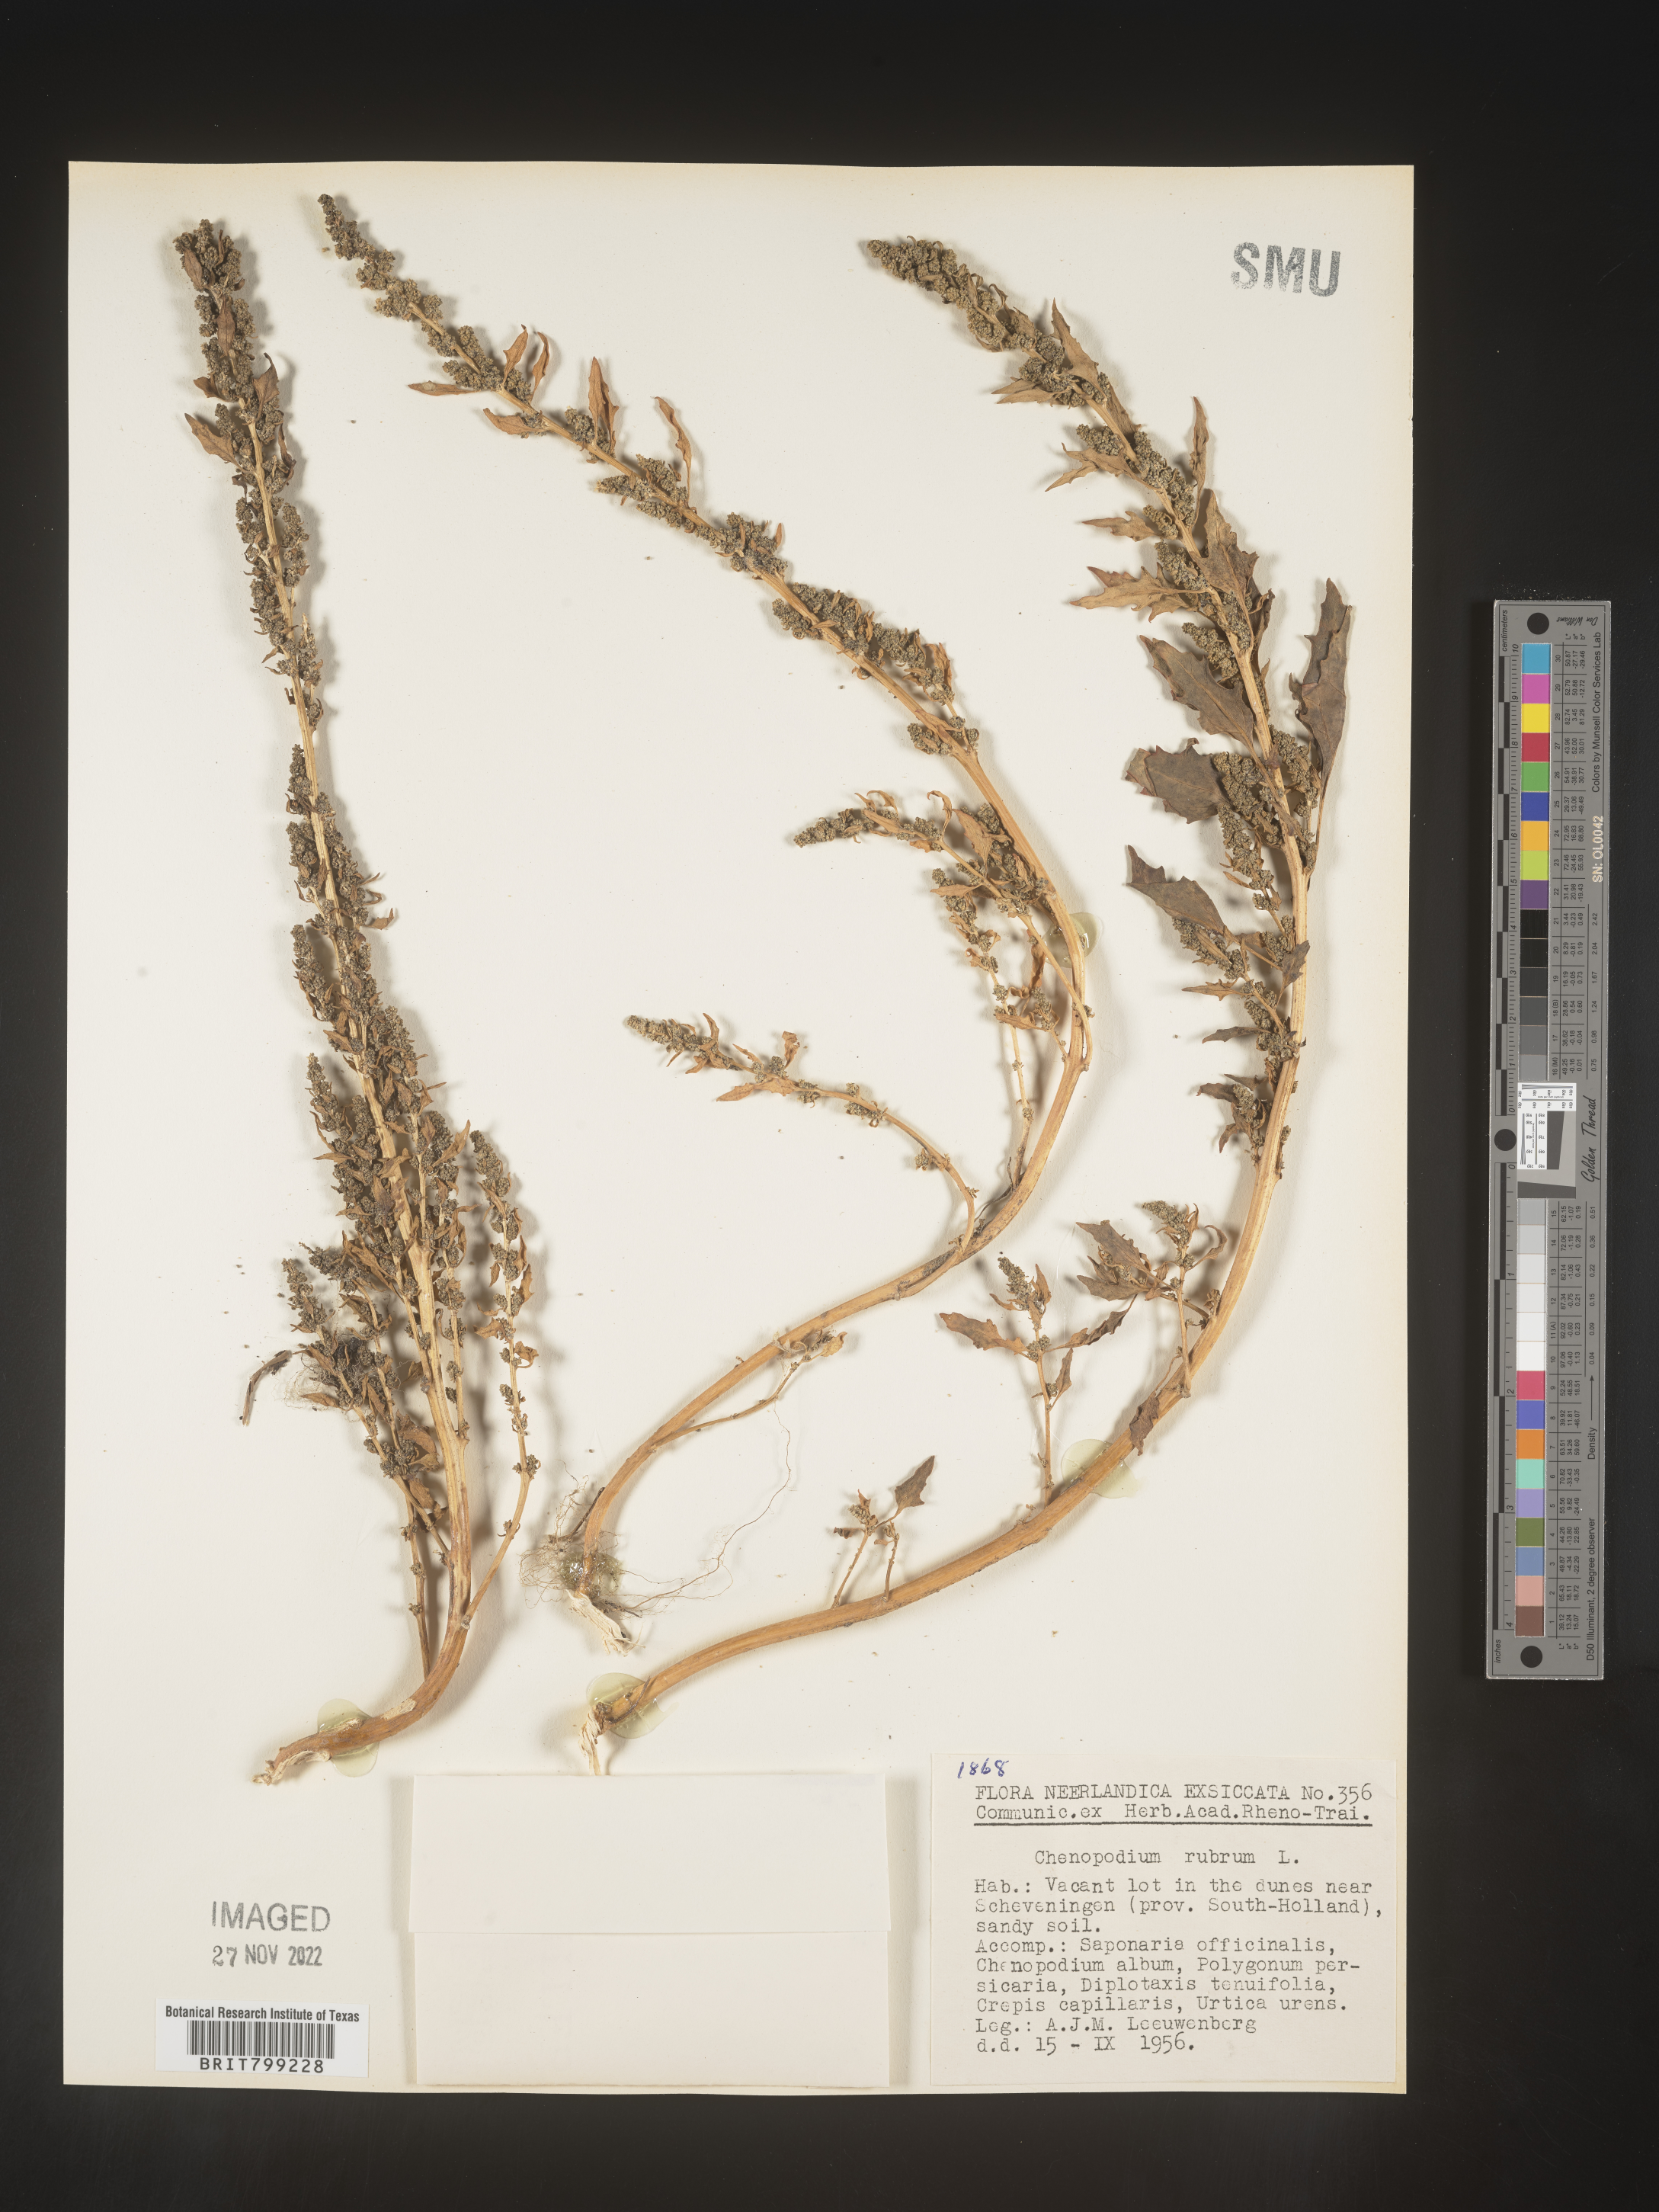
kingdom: Plantae
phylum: Tracheophyta
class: Magnoliopsida
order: Caryophyllales
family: Amaranthaceae
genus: Oxybasis
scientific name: Oxybasis rubra
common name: Red goosefoot
